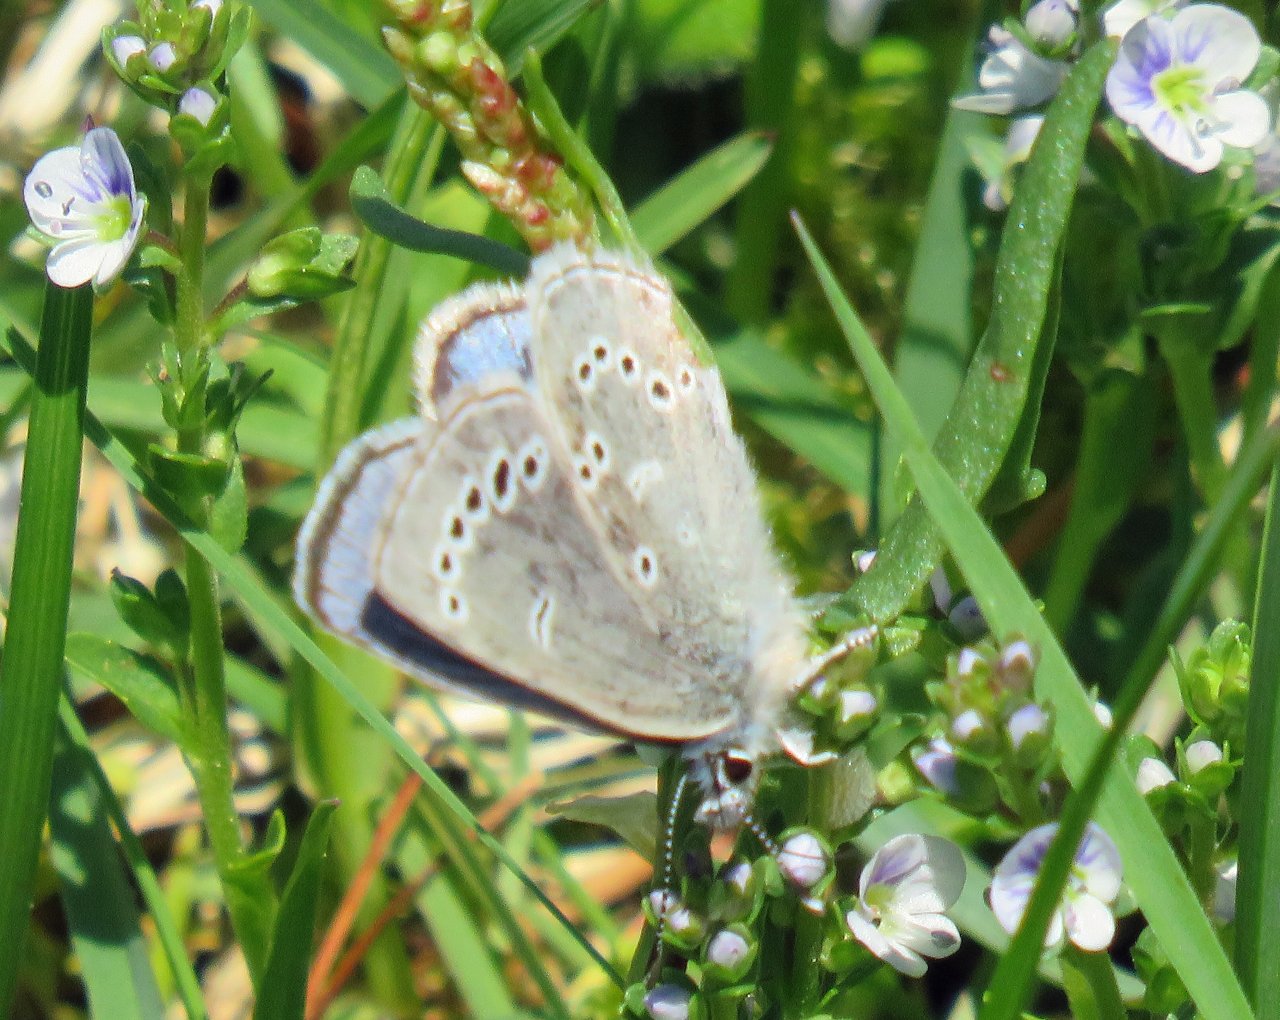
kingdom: Animalia
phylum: Arthropoda
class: Insecta
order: Lepidoptera
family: Lycaenidae
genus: Glaucopsyche
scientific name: Glaucopsyche lygdamus
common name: Silvery Blue
